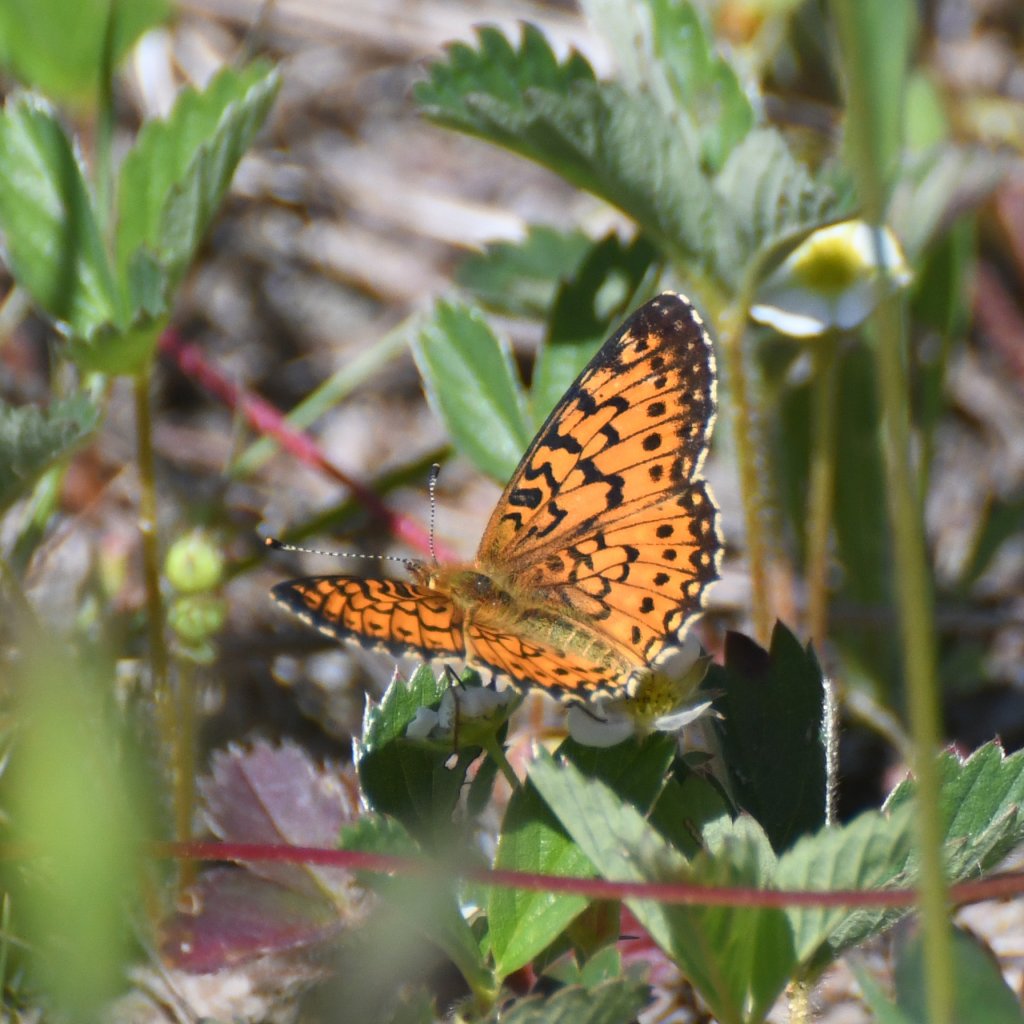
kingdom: Animalia
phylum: Arthropoda
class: Insecta
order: Lepidoptera
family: Nymphalidae
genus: Boloria
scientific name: Boloria selene
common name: Silver-bordered Fritillary
